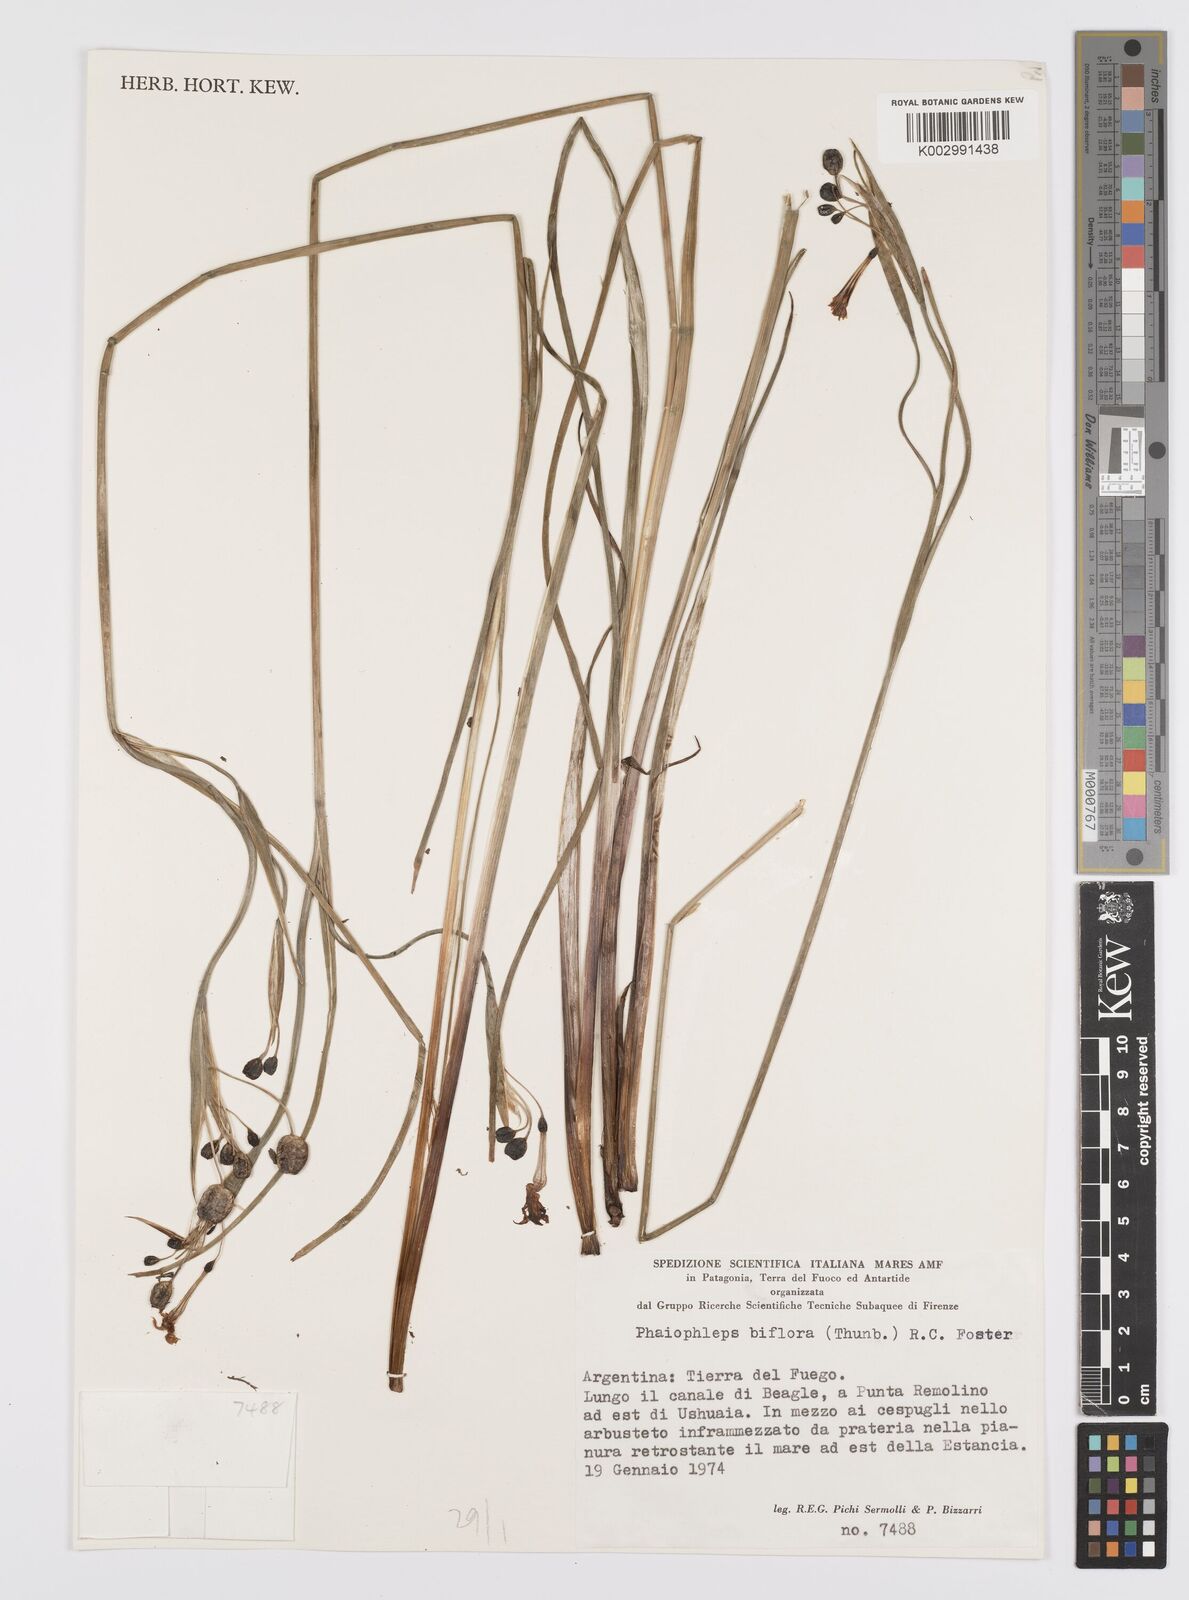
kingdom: Plantae
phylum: Tracheophyta
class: Liliopsida
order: Asparagales
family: Iridaceae
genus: Olsynium
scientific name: Olsynium biflorum
